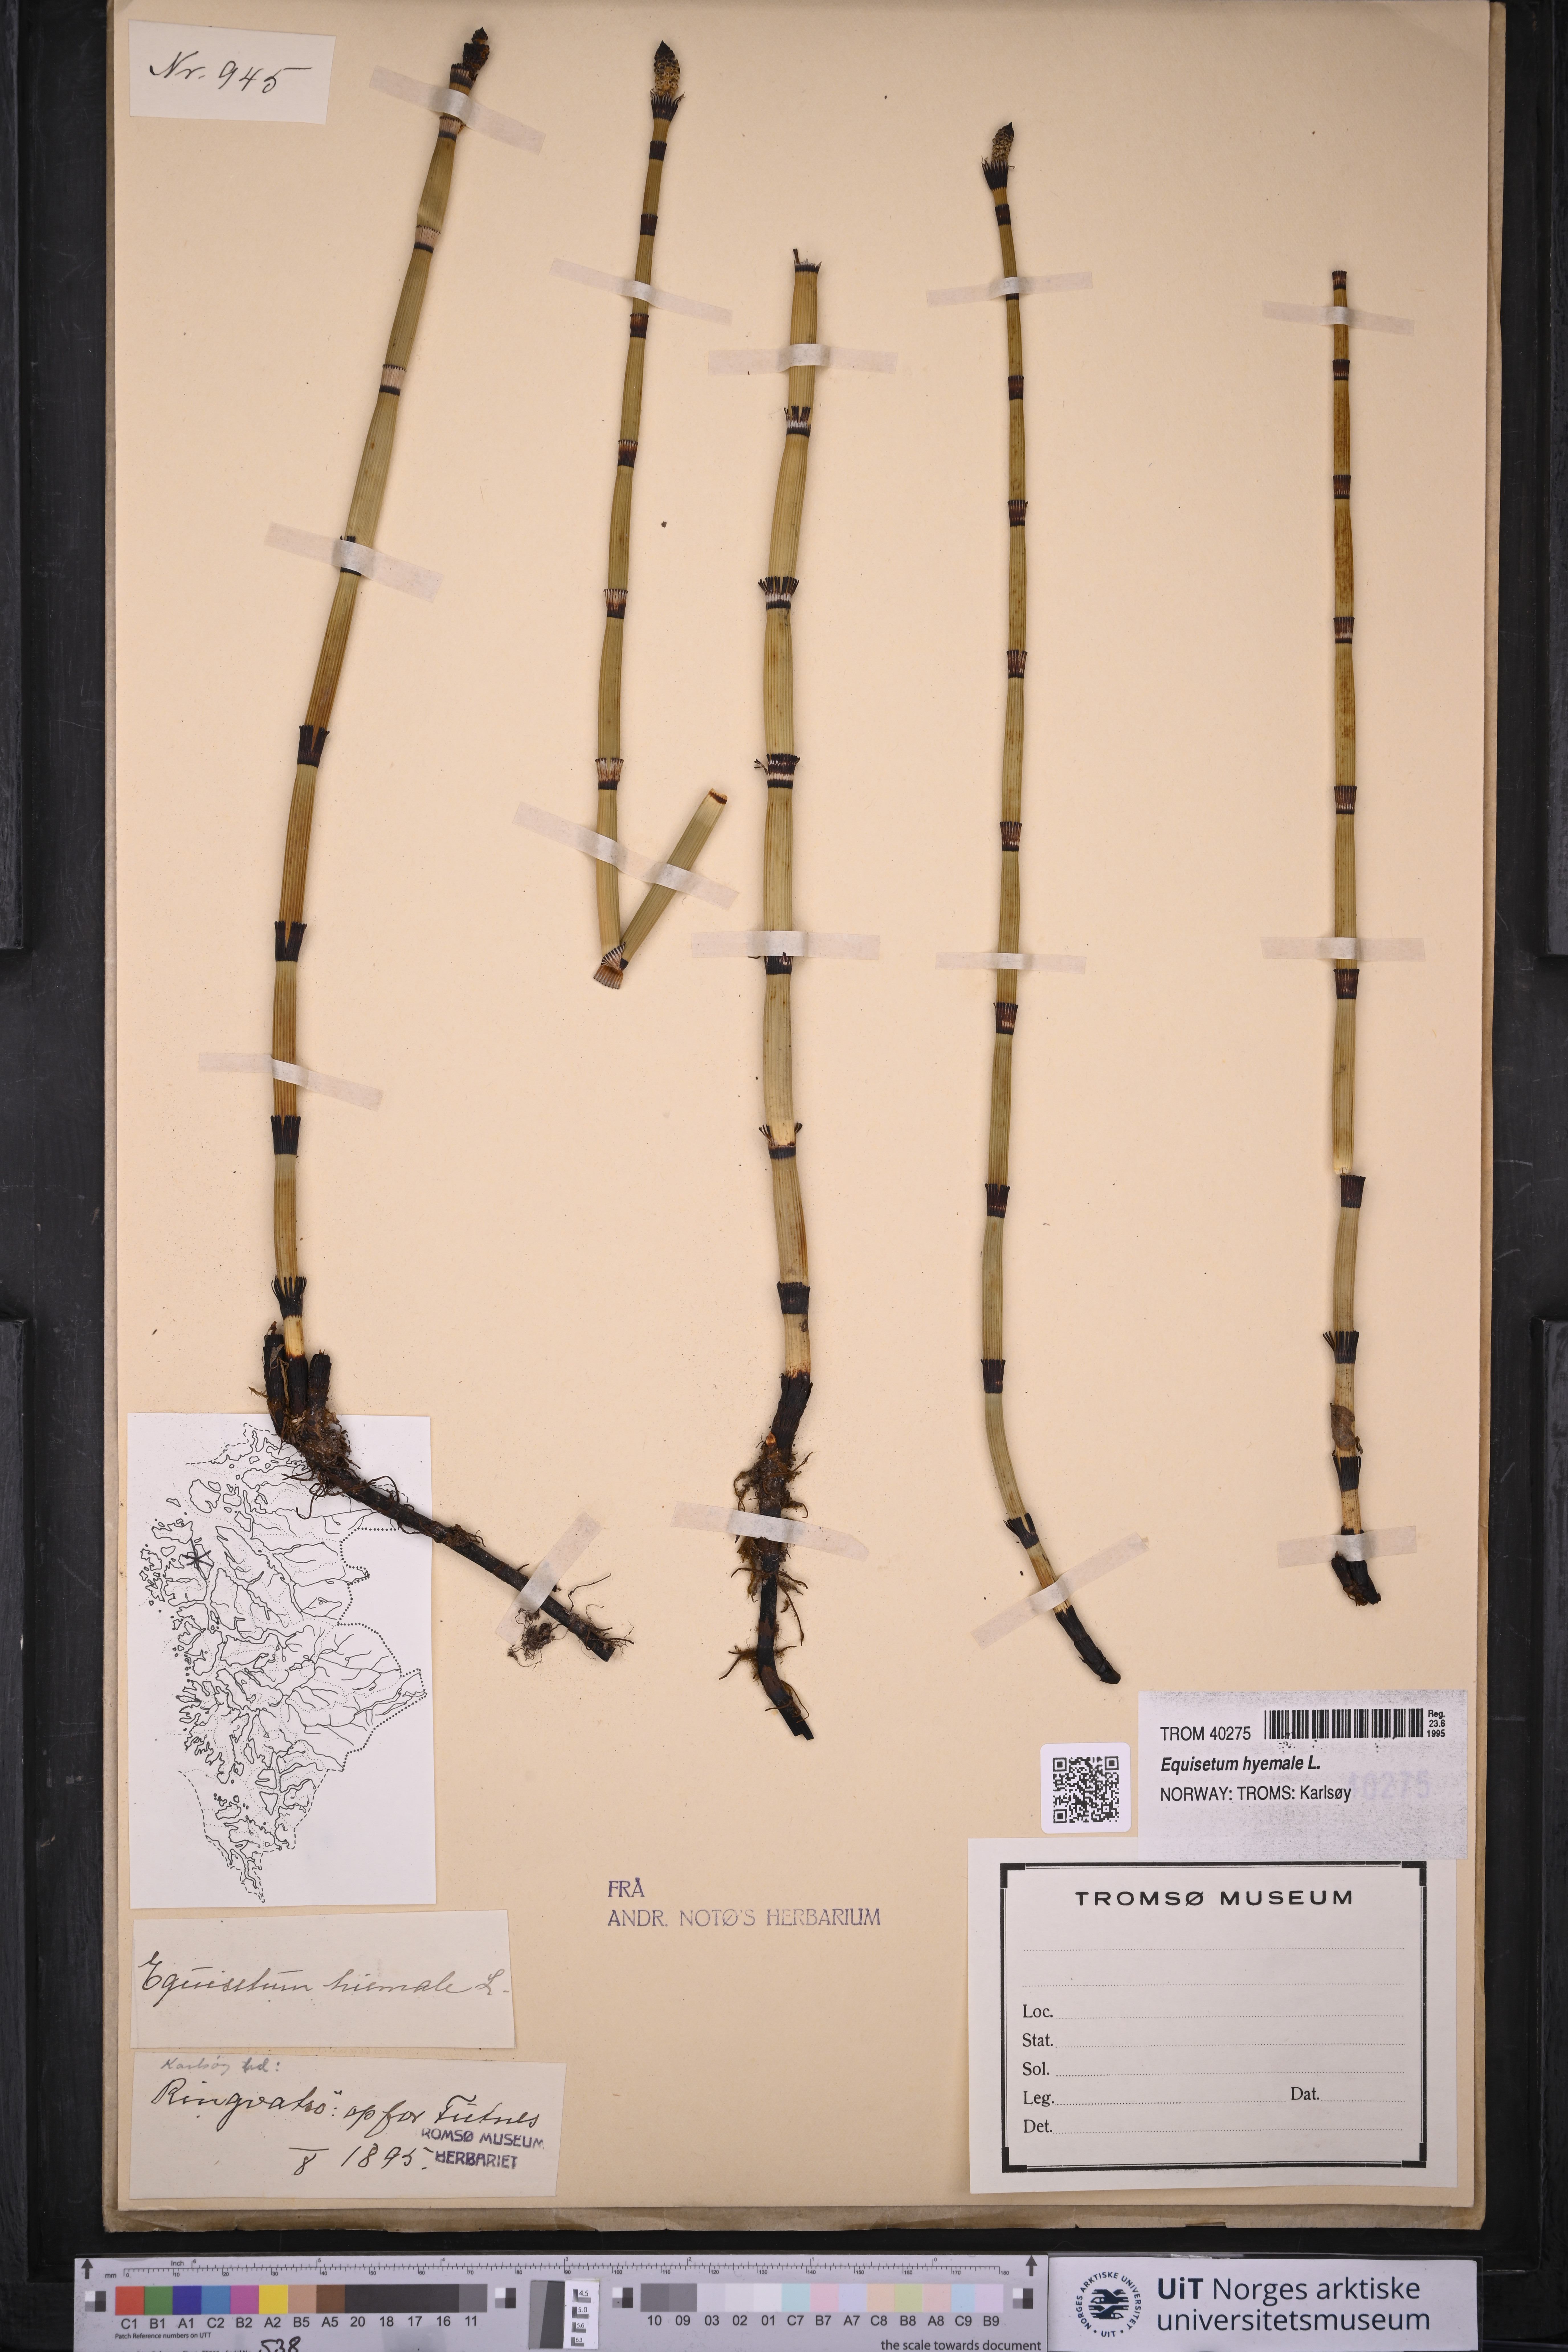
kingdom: Plantae
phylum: Tracheophyta
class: Polypodiopsida
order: Equisetales
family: Equisetaceae
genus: Equisetum
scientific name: Equisetum hyemale
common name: Rough horsetail
